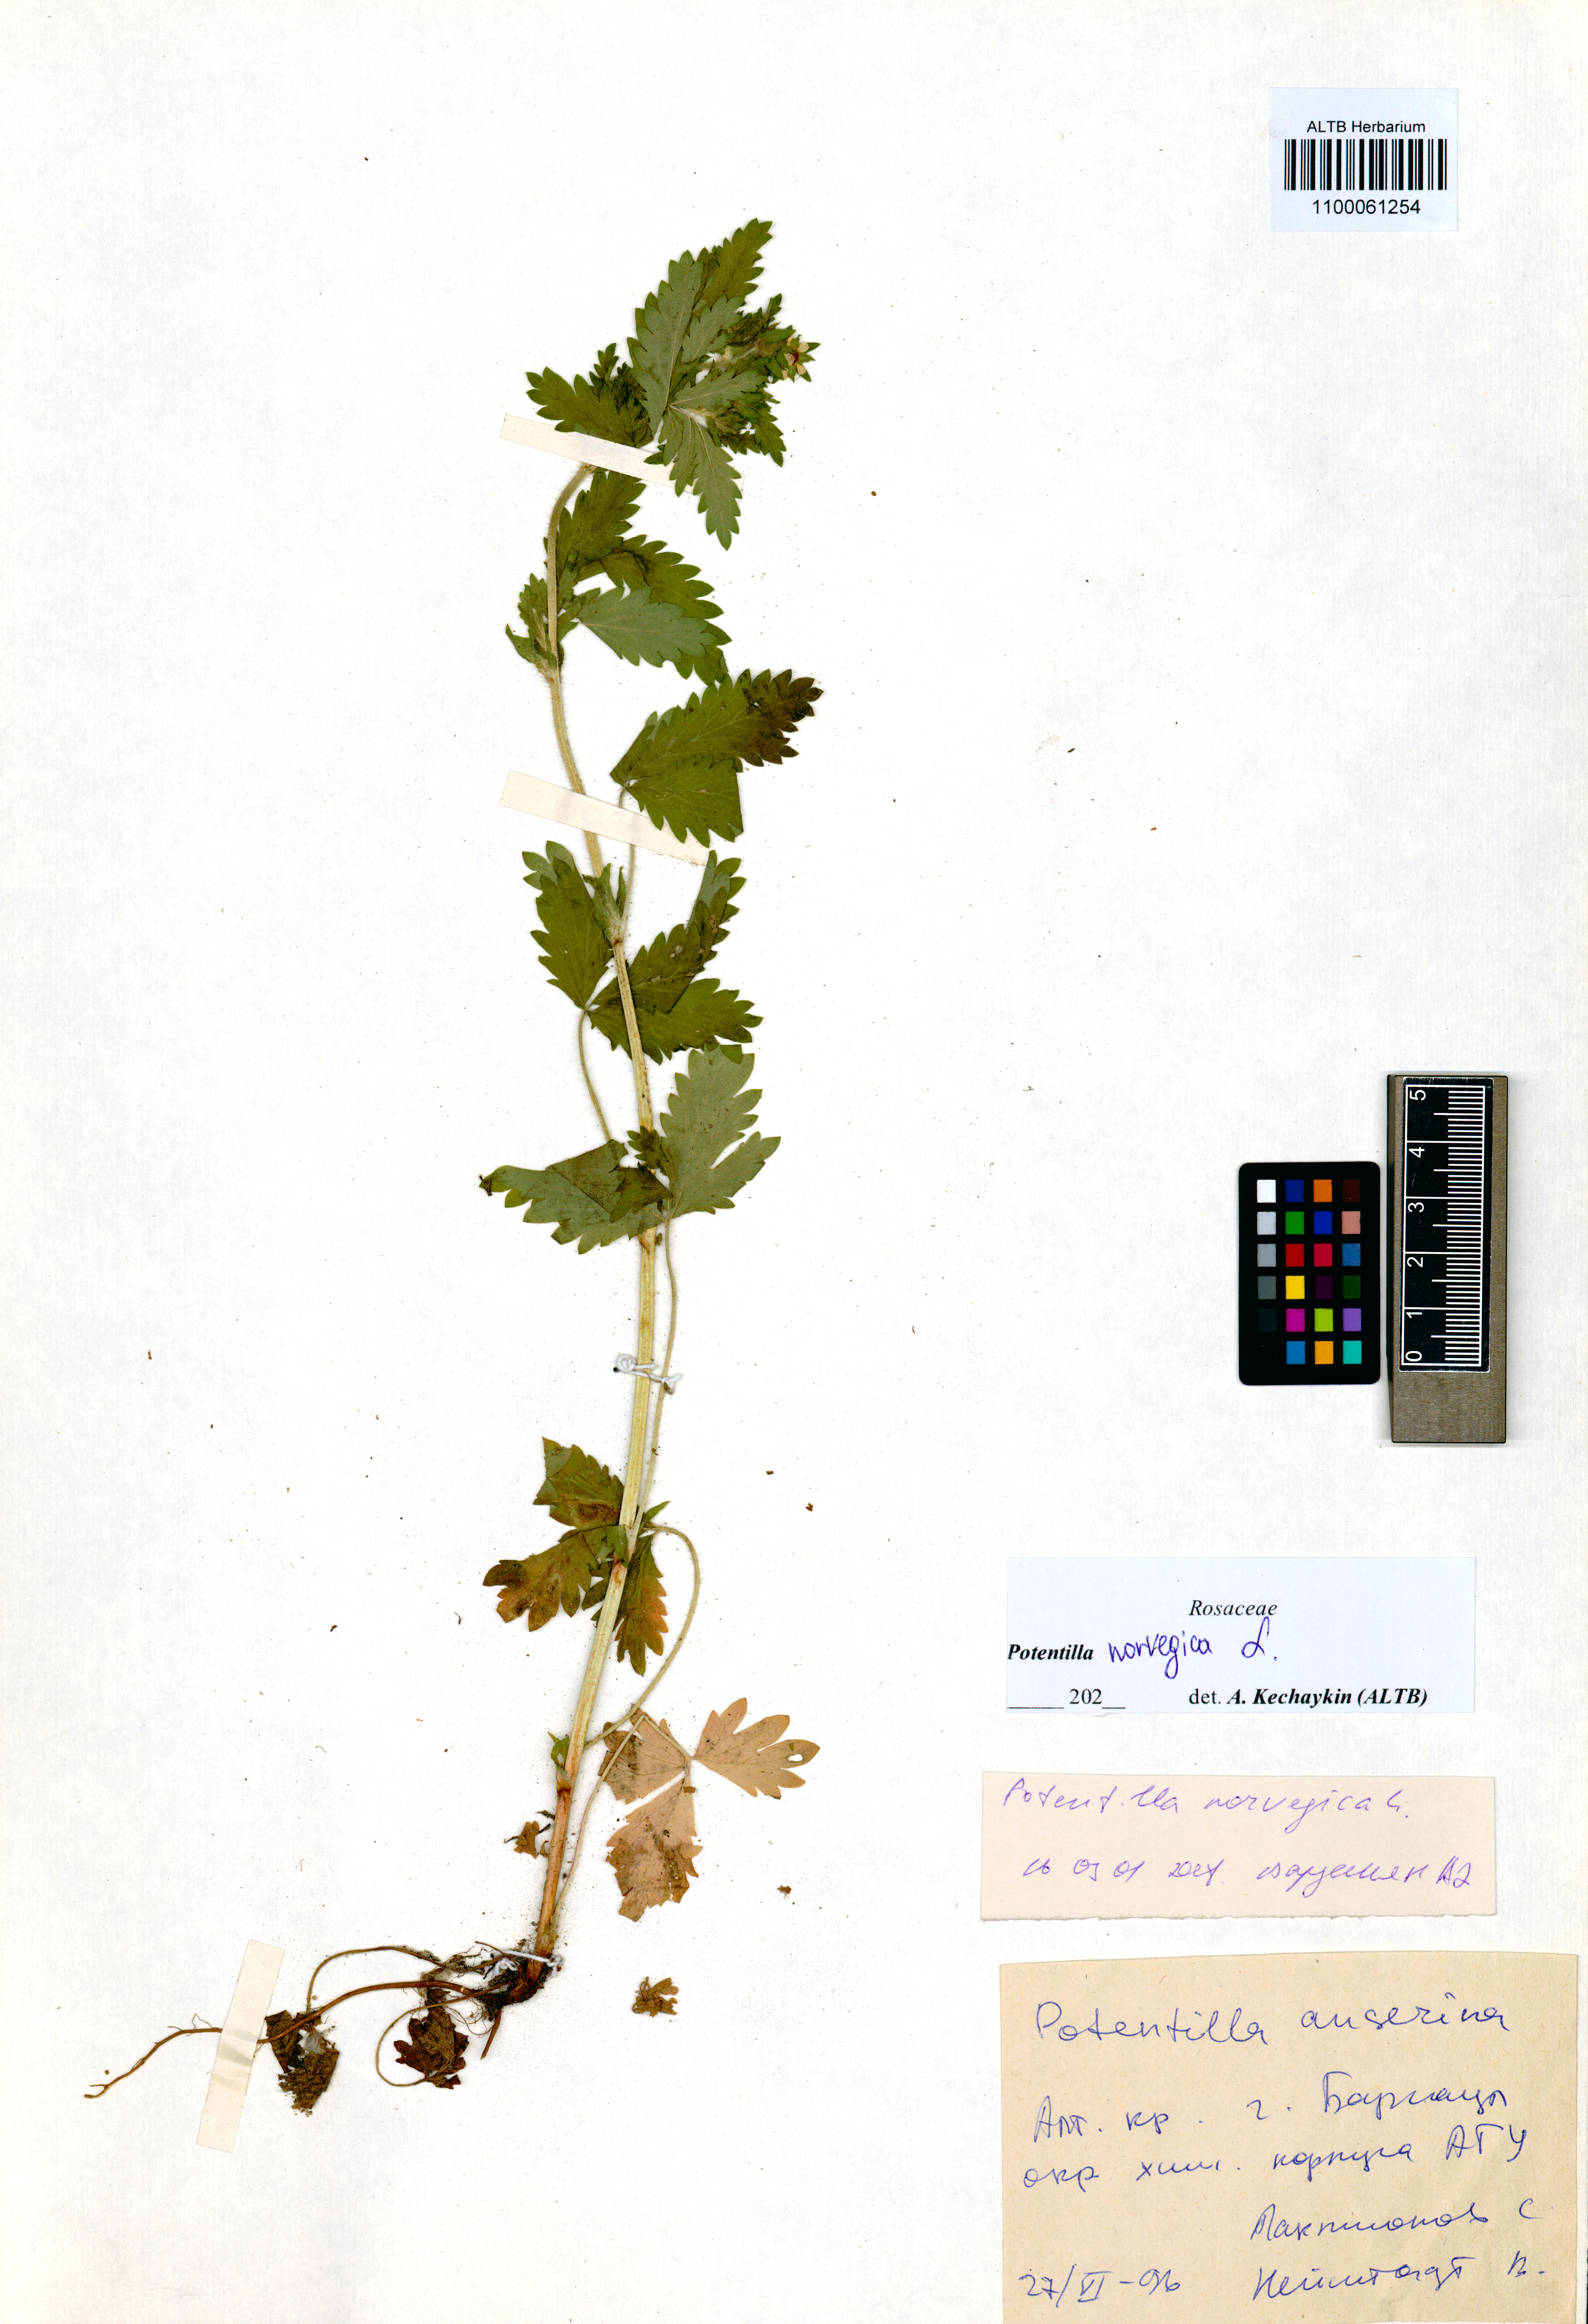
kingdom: Plantae
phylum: Tracheophyta
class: Magnoliopsida
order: Rosales
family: Rosaceae
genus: Potentilla
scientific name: Potentilla norvegica
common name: Ternate-leaved cinquefoil
